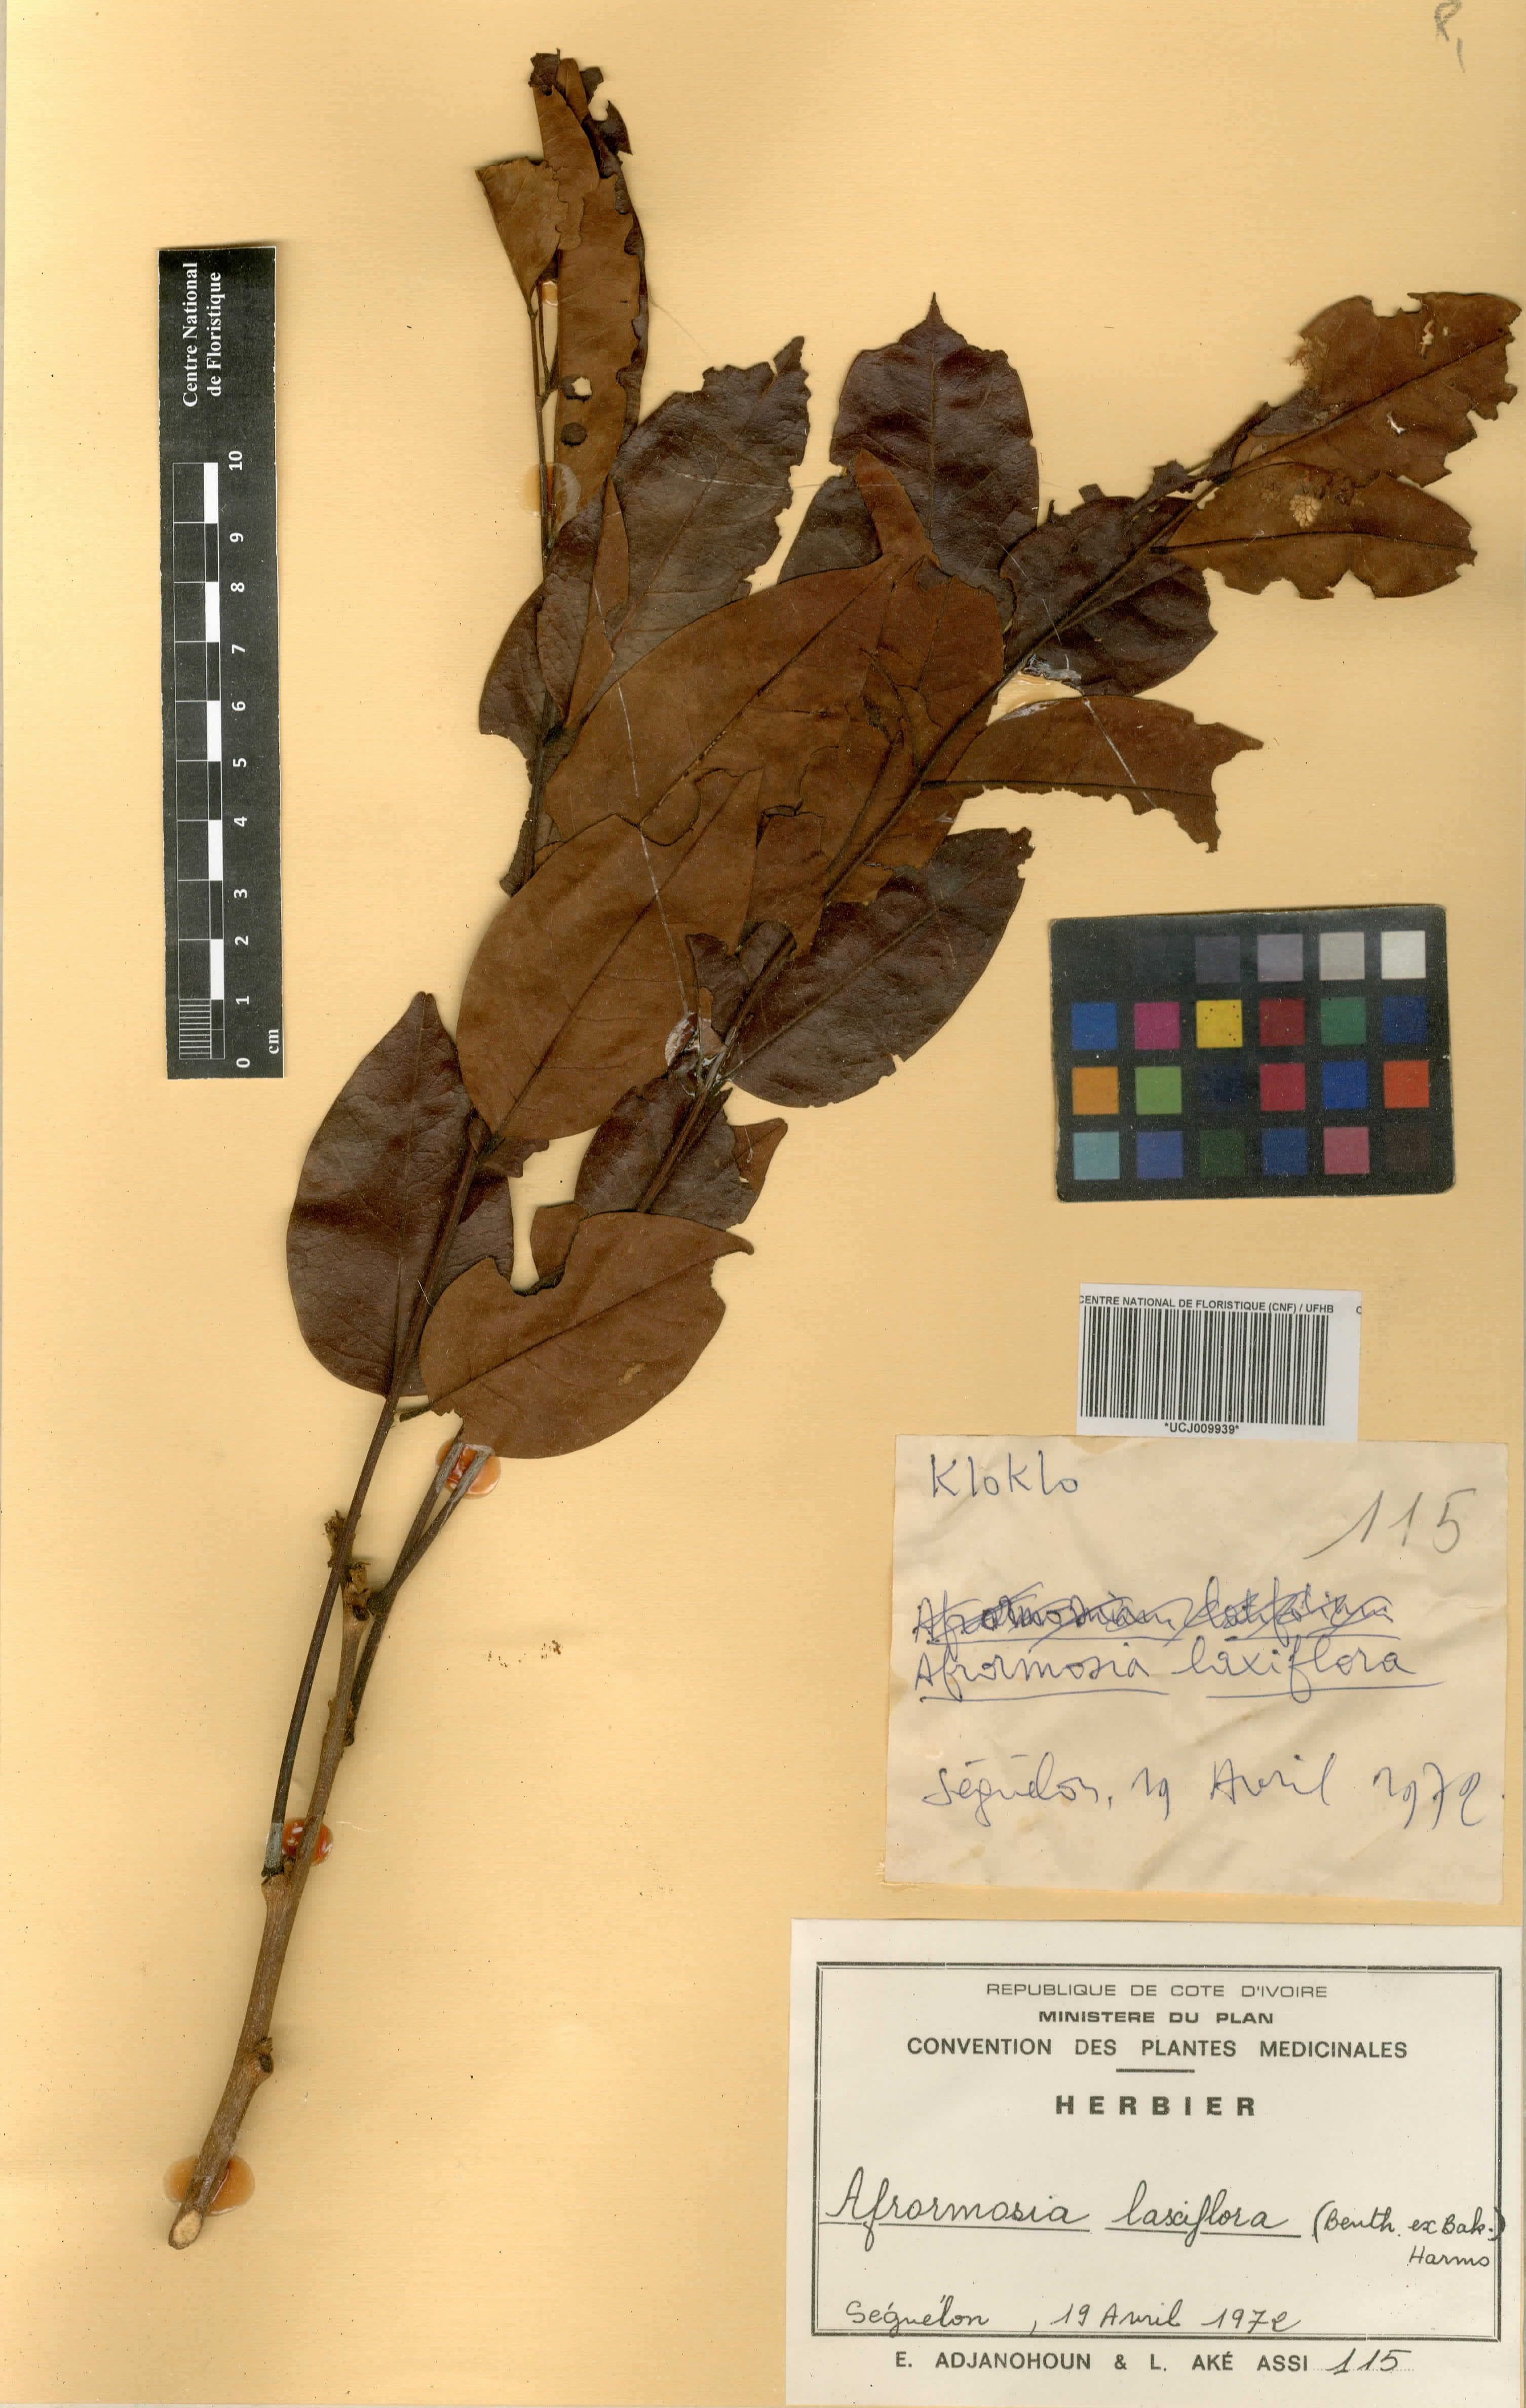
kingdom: Plantae
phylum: Tracheophyta
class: Magnoliopsida
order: Fabales
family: Fabaceae
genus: Pericopsis
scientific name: Pericopsis laxiflora
